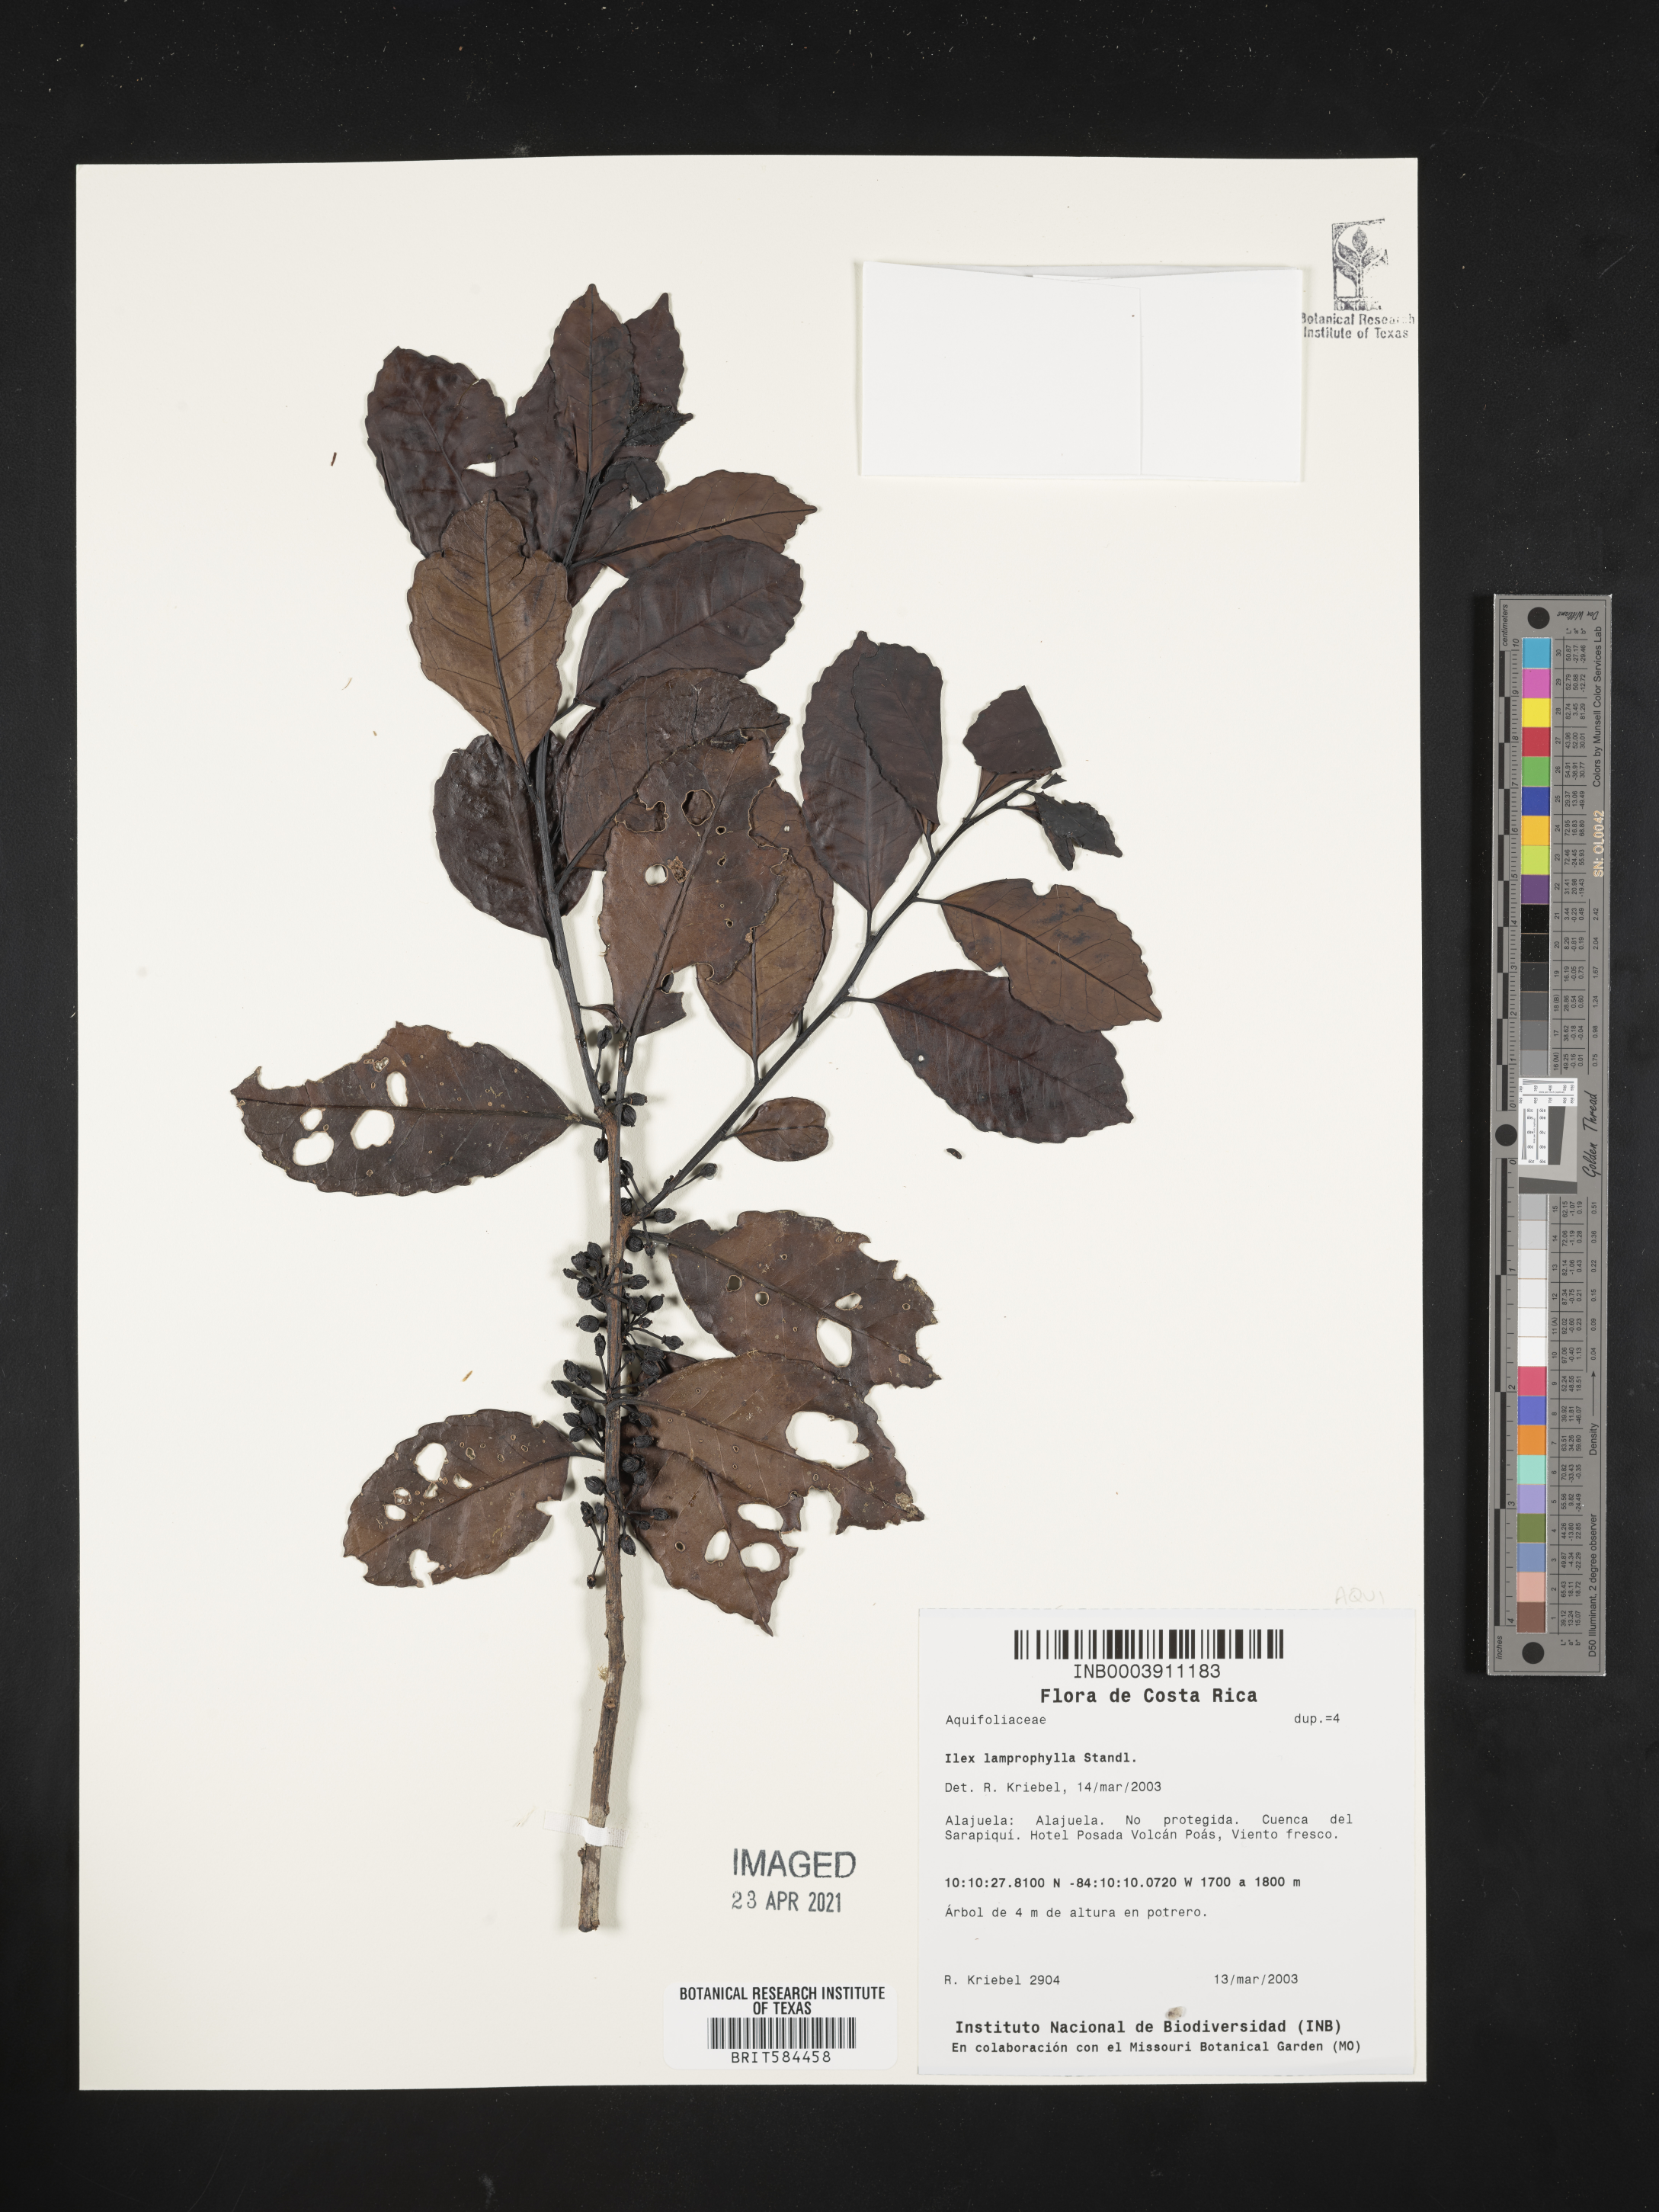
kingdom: Plantae
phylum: Tracheophyta
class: Magnoliopsida
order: Aquifoliales
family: Aquifoliaceae
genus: Ilex
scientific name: Ilex lamprophylla
